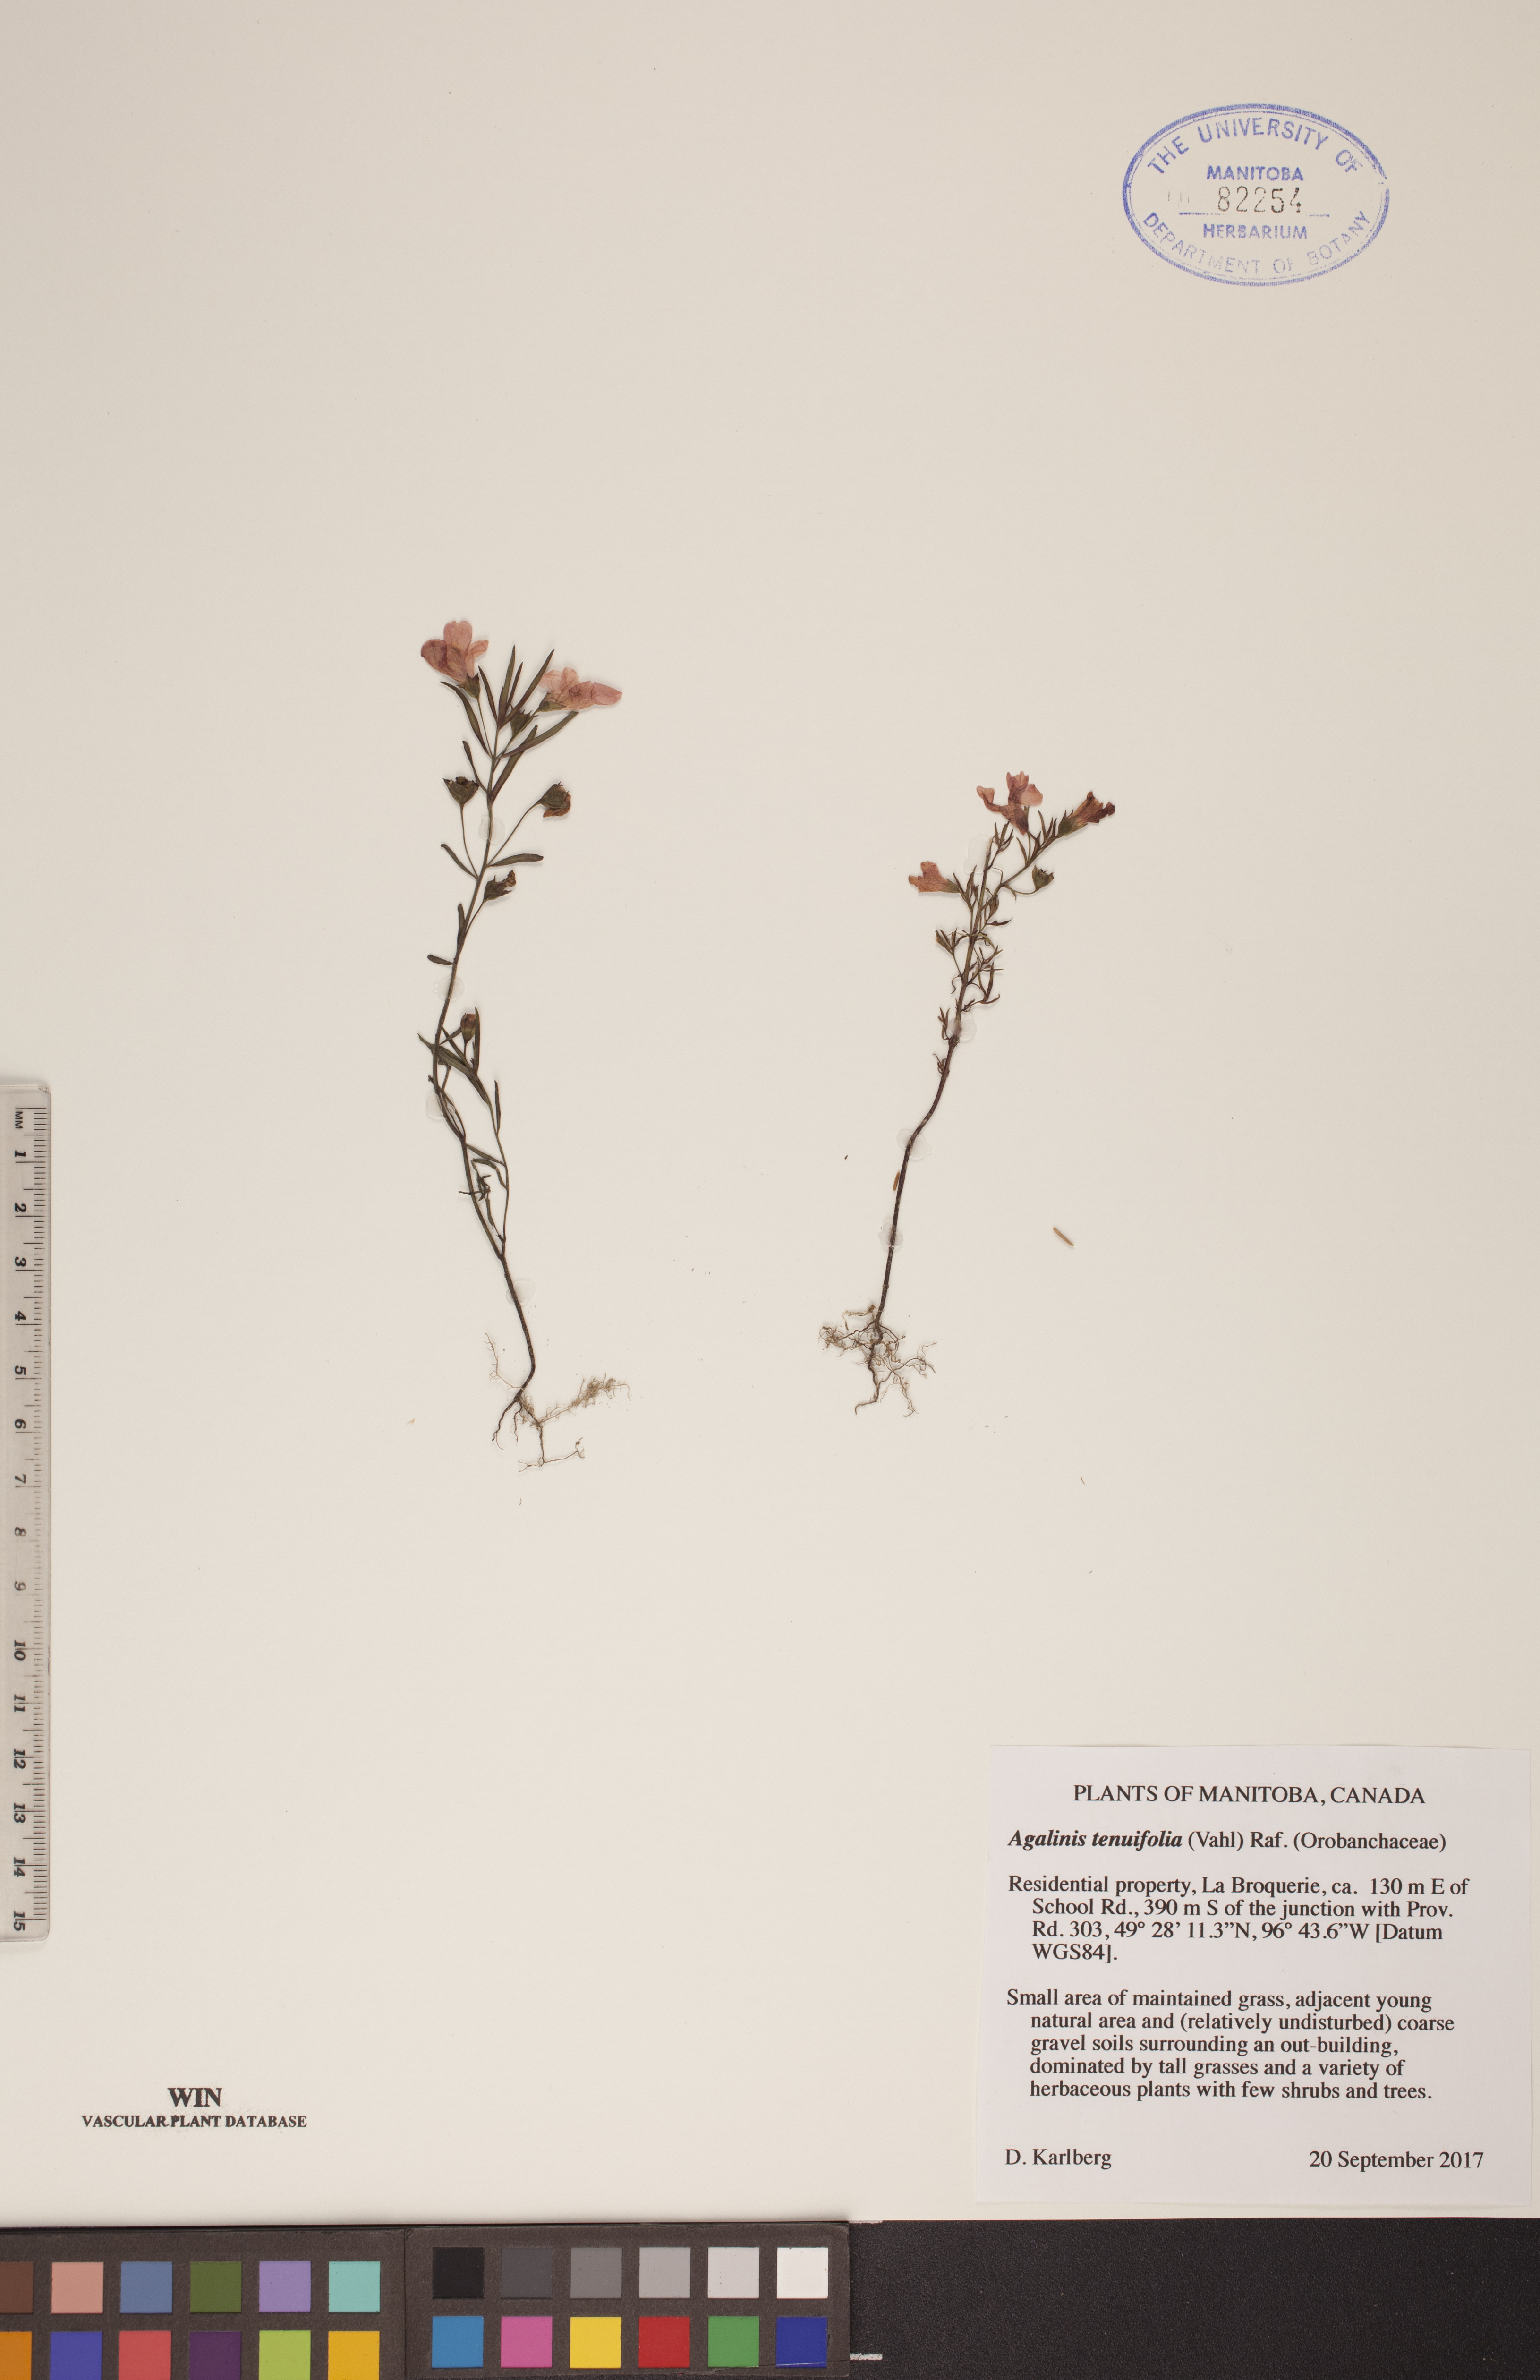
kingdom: Plantae
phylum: Tracheophyta
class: Magnoliopsida
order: Lamiales
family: Orobanchaceae
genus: Agalinis
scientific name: Agalinis tenuifolia
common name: Slender agalinis
